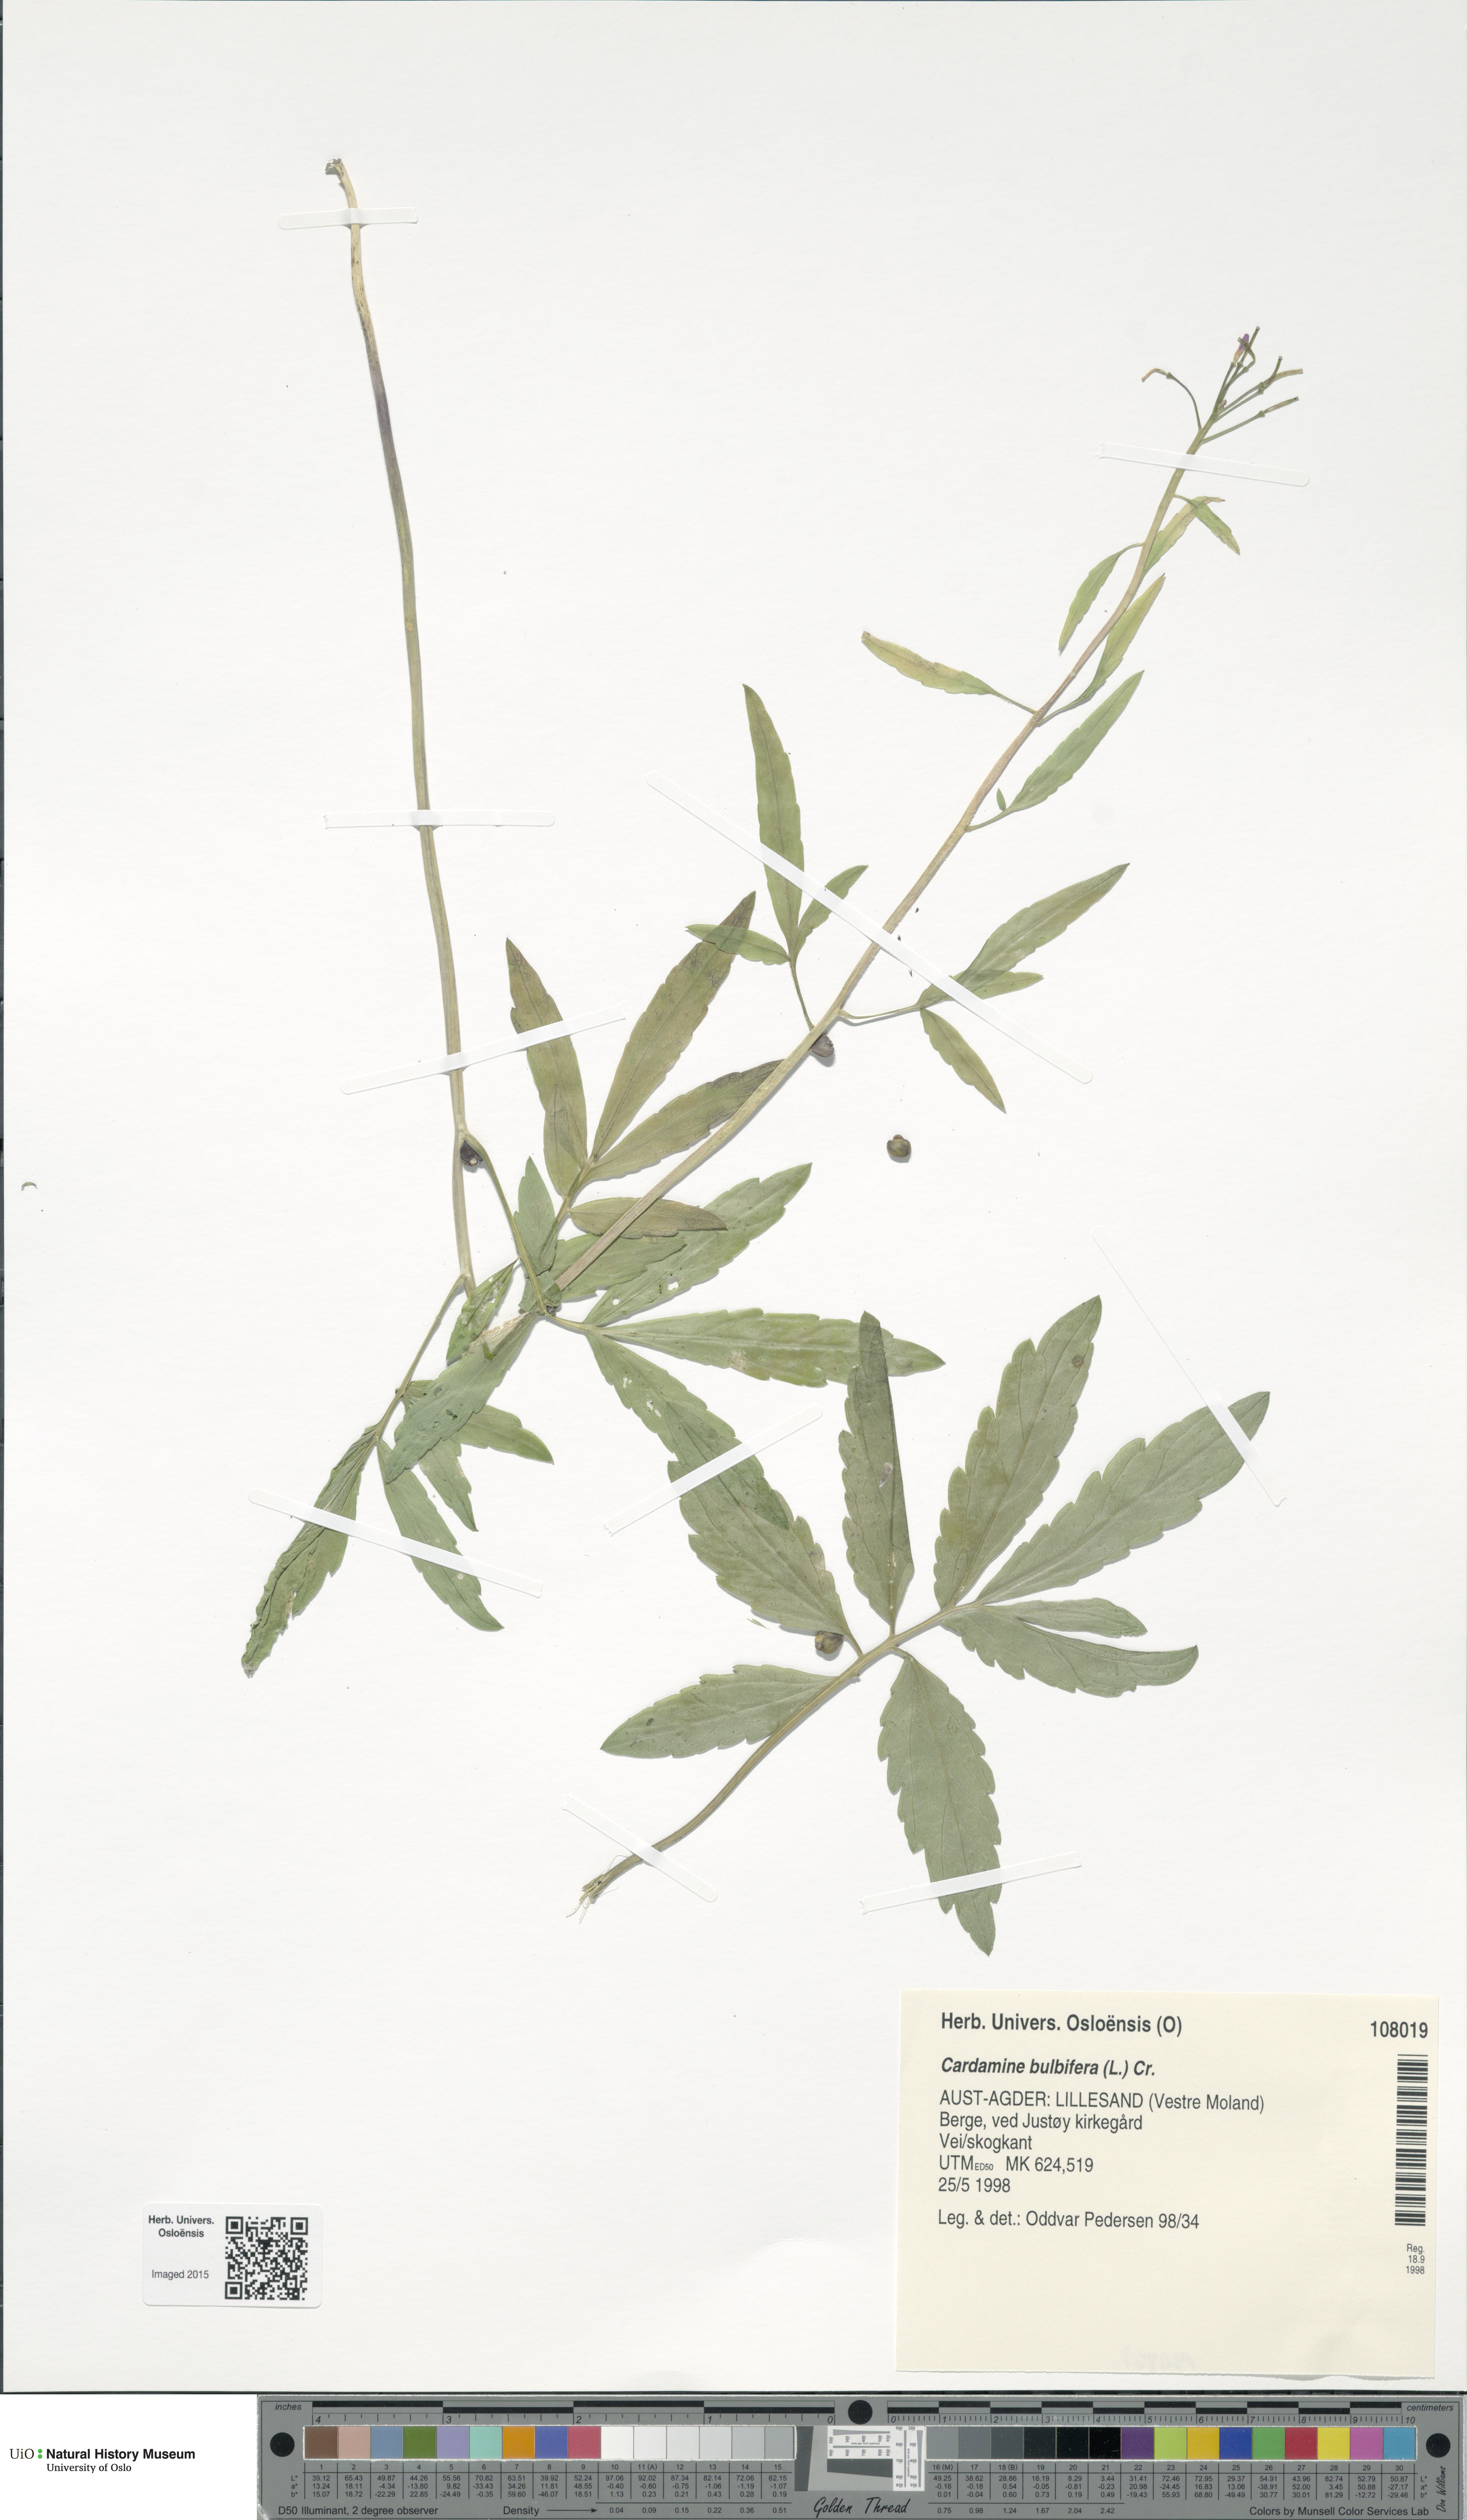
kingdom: Plantae
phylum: Tracheophyta
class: Magnoliopsida
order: Brassicales
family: Brassicaceae
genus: Cardamine
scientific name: Cardamine bulbifera
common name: Coralroot bittercress
